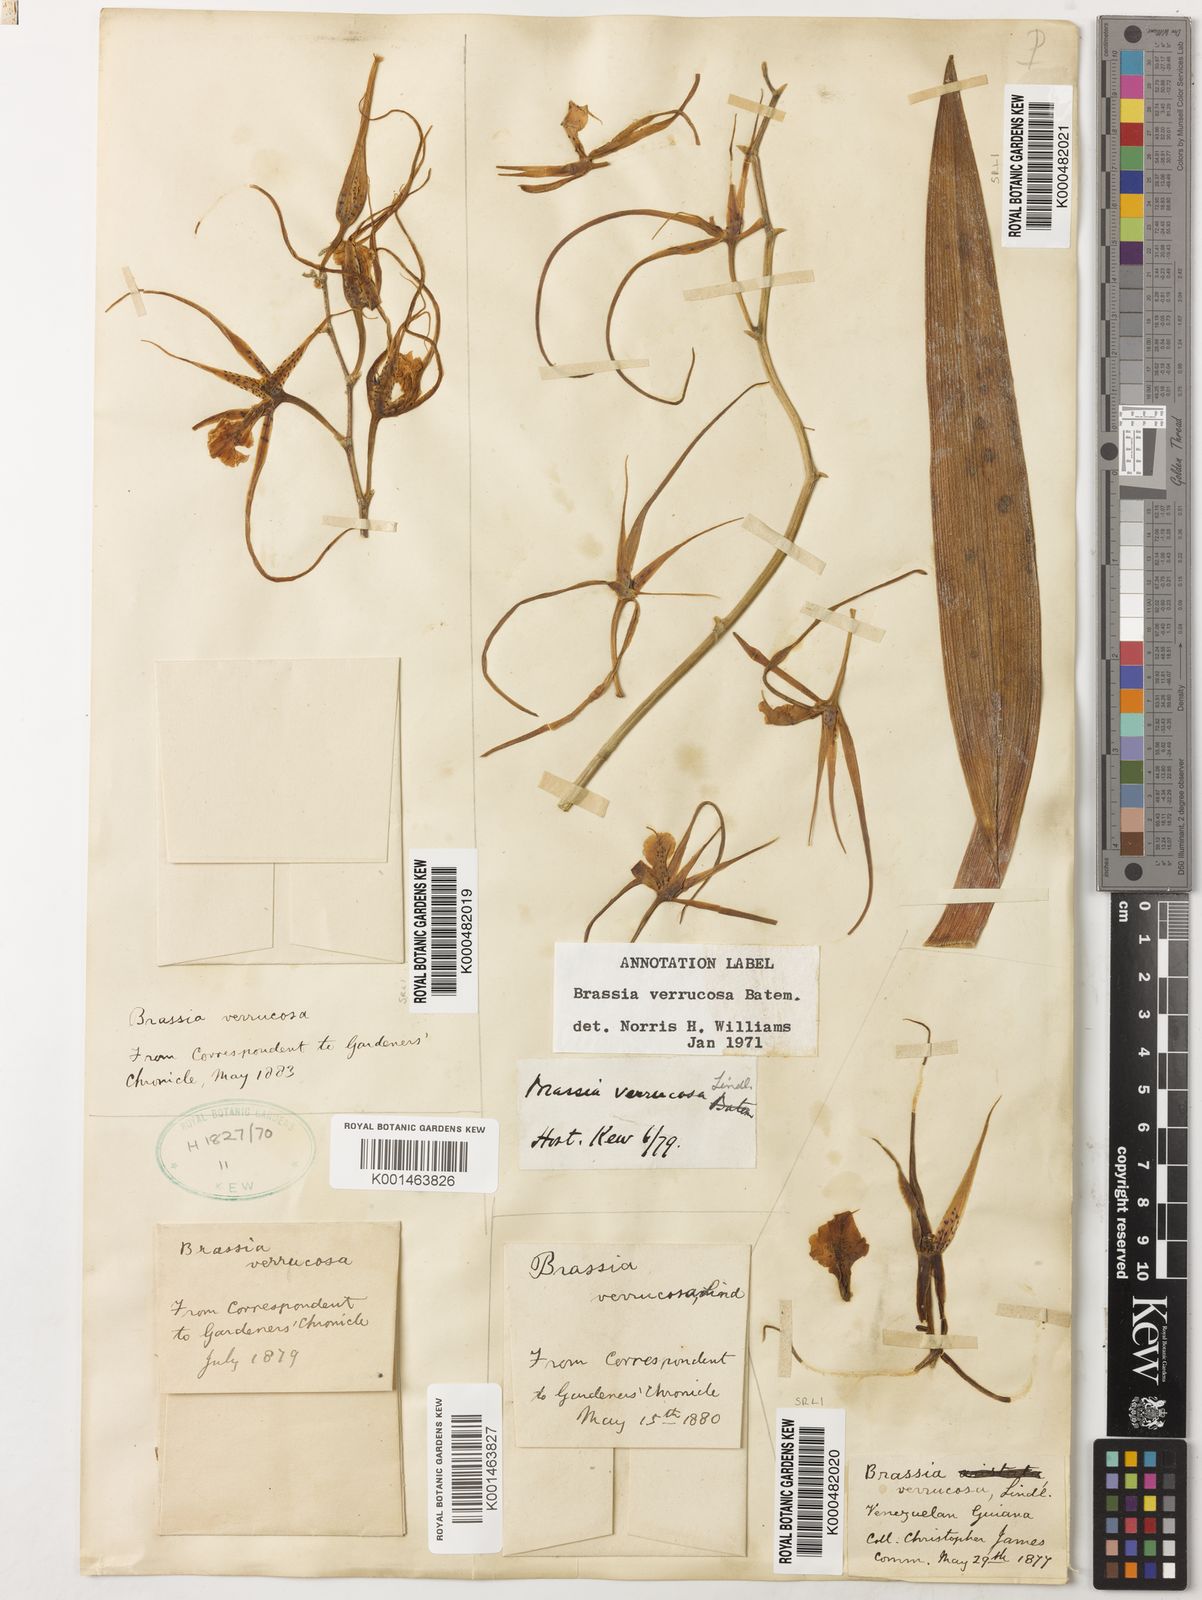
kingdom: Plantae
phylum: Tracheophyta
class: Liliopsida
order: Asparagales
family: Orchidaceae
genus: Brassia
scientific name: Brassia verrucosa
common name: Warty brassia
